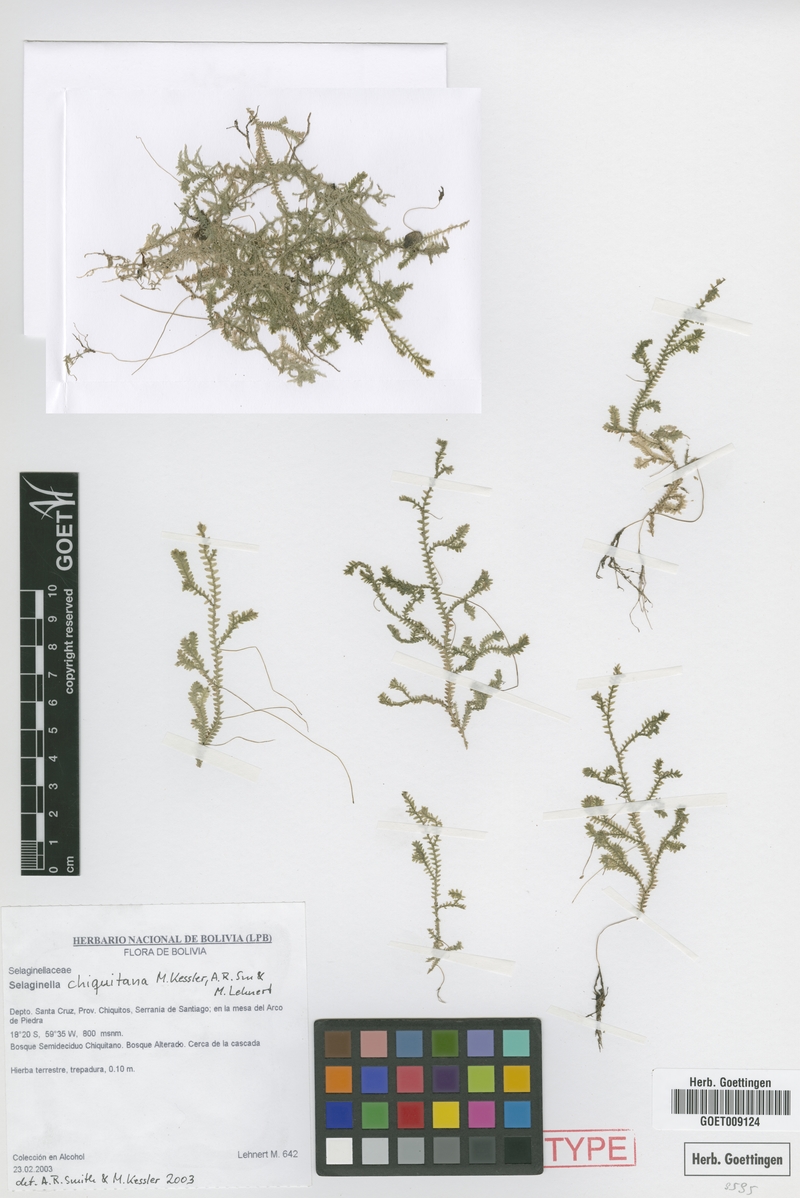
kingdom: Plantae
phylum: Tracheophyta
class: Lycopodiopsida
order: Selaginellales
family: Selaginellaceae
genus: Selaginella
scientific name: Selaginella cabrerensis
